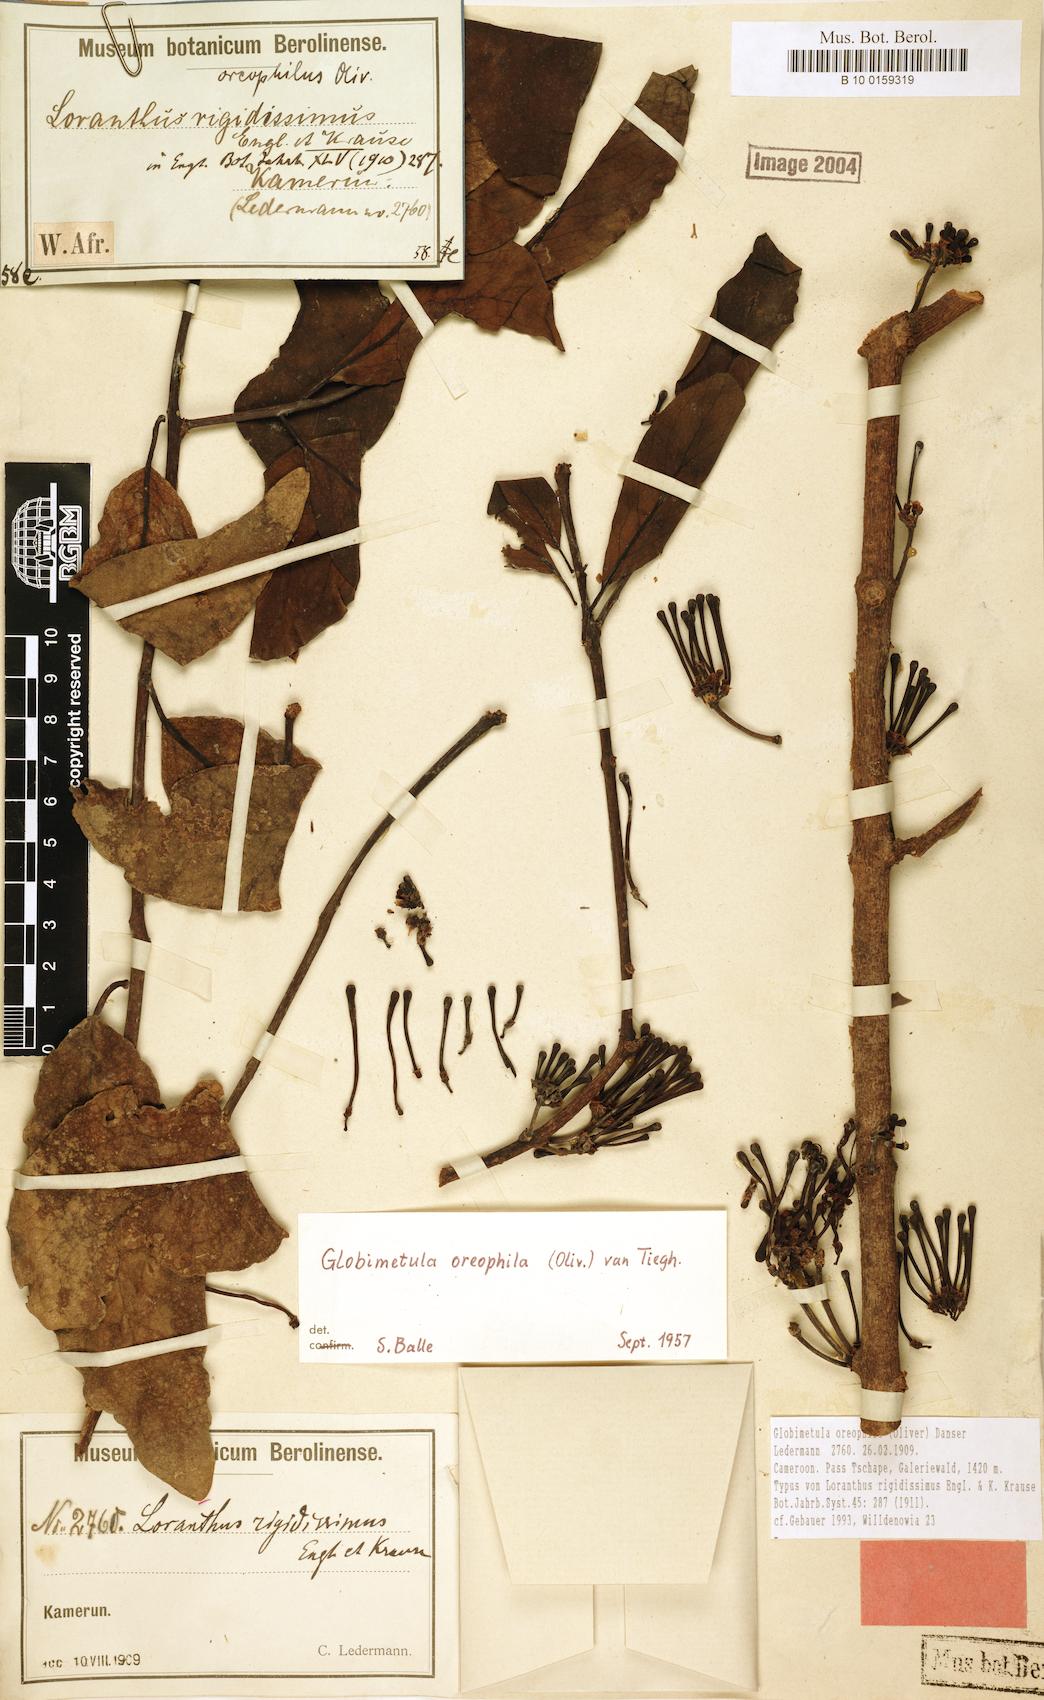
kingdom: Plantae
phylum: Tracheophyta
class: Magnoliopsida
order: Santalales
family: Loranthaceae
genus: Globimetula
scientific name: Globimetula oreophila
